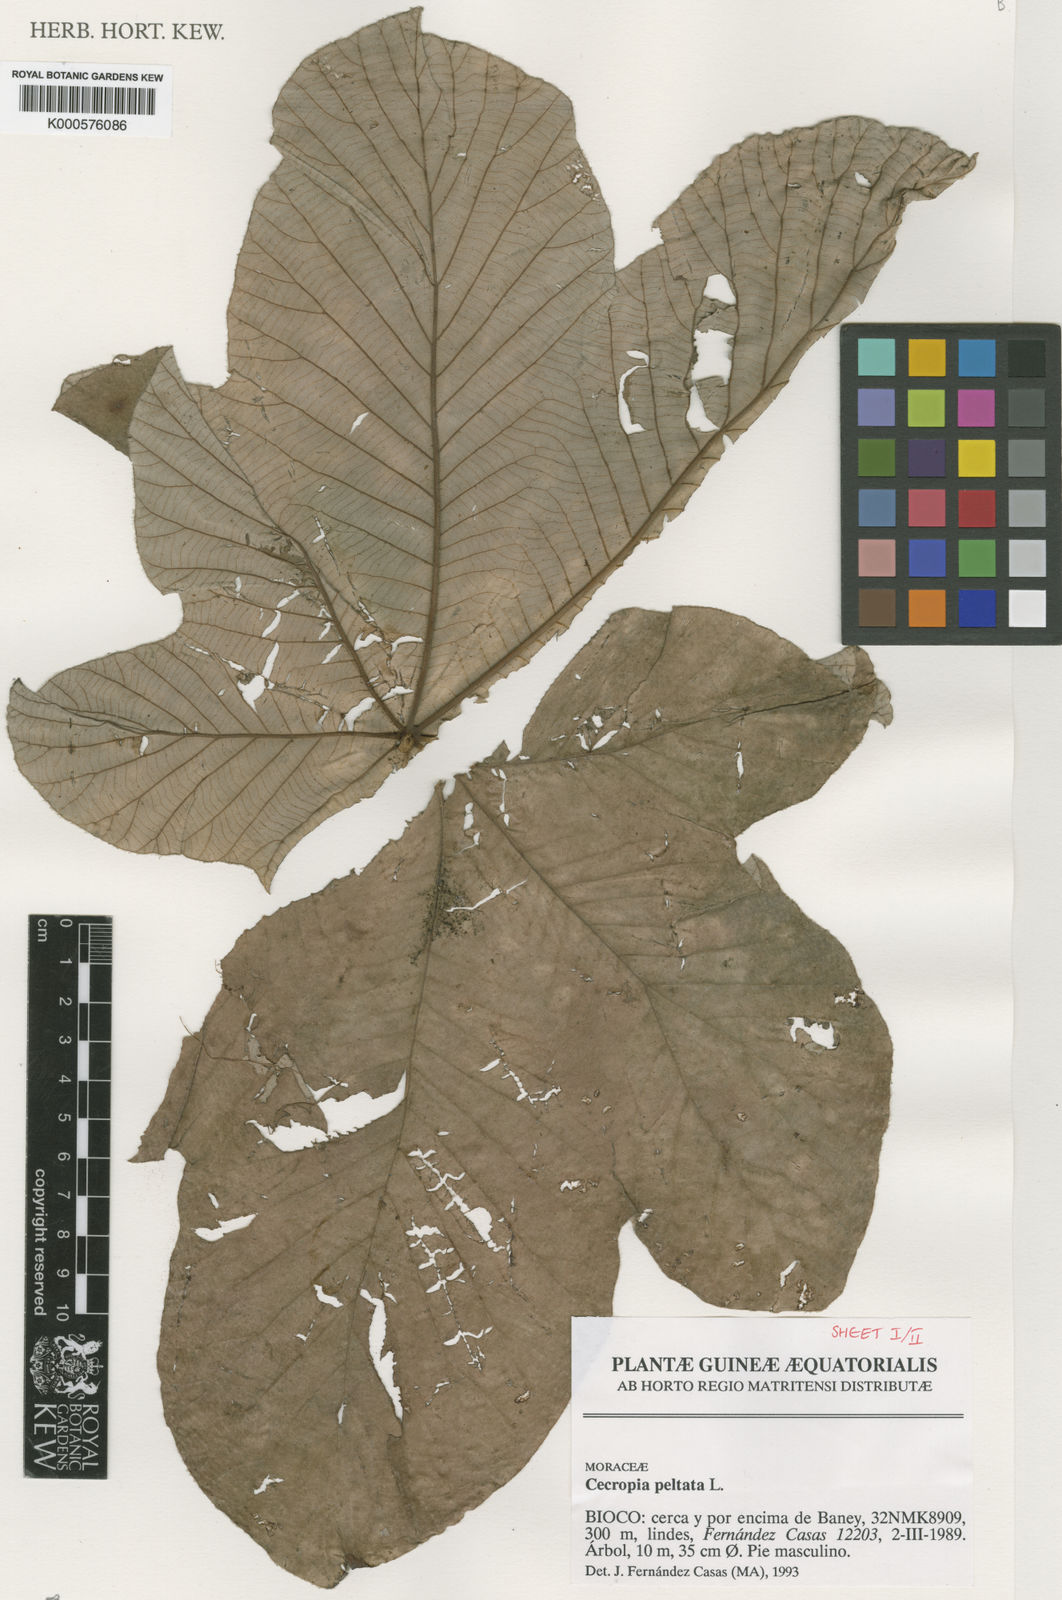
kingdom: Plantae
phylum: Tracheophyta
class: Magnoliopsida
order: Rosales
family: Urticaceae
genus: Cecropia
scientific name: Cecropia peltata
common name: Trumpet-tree
